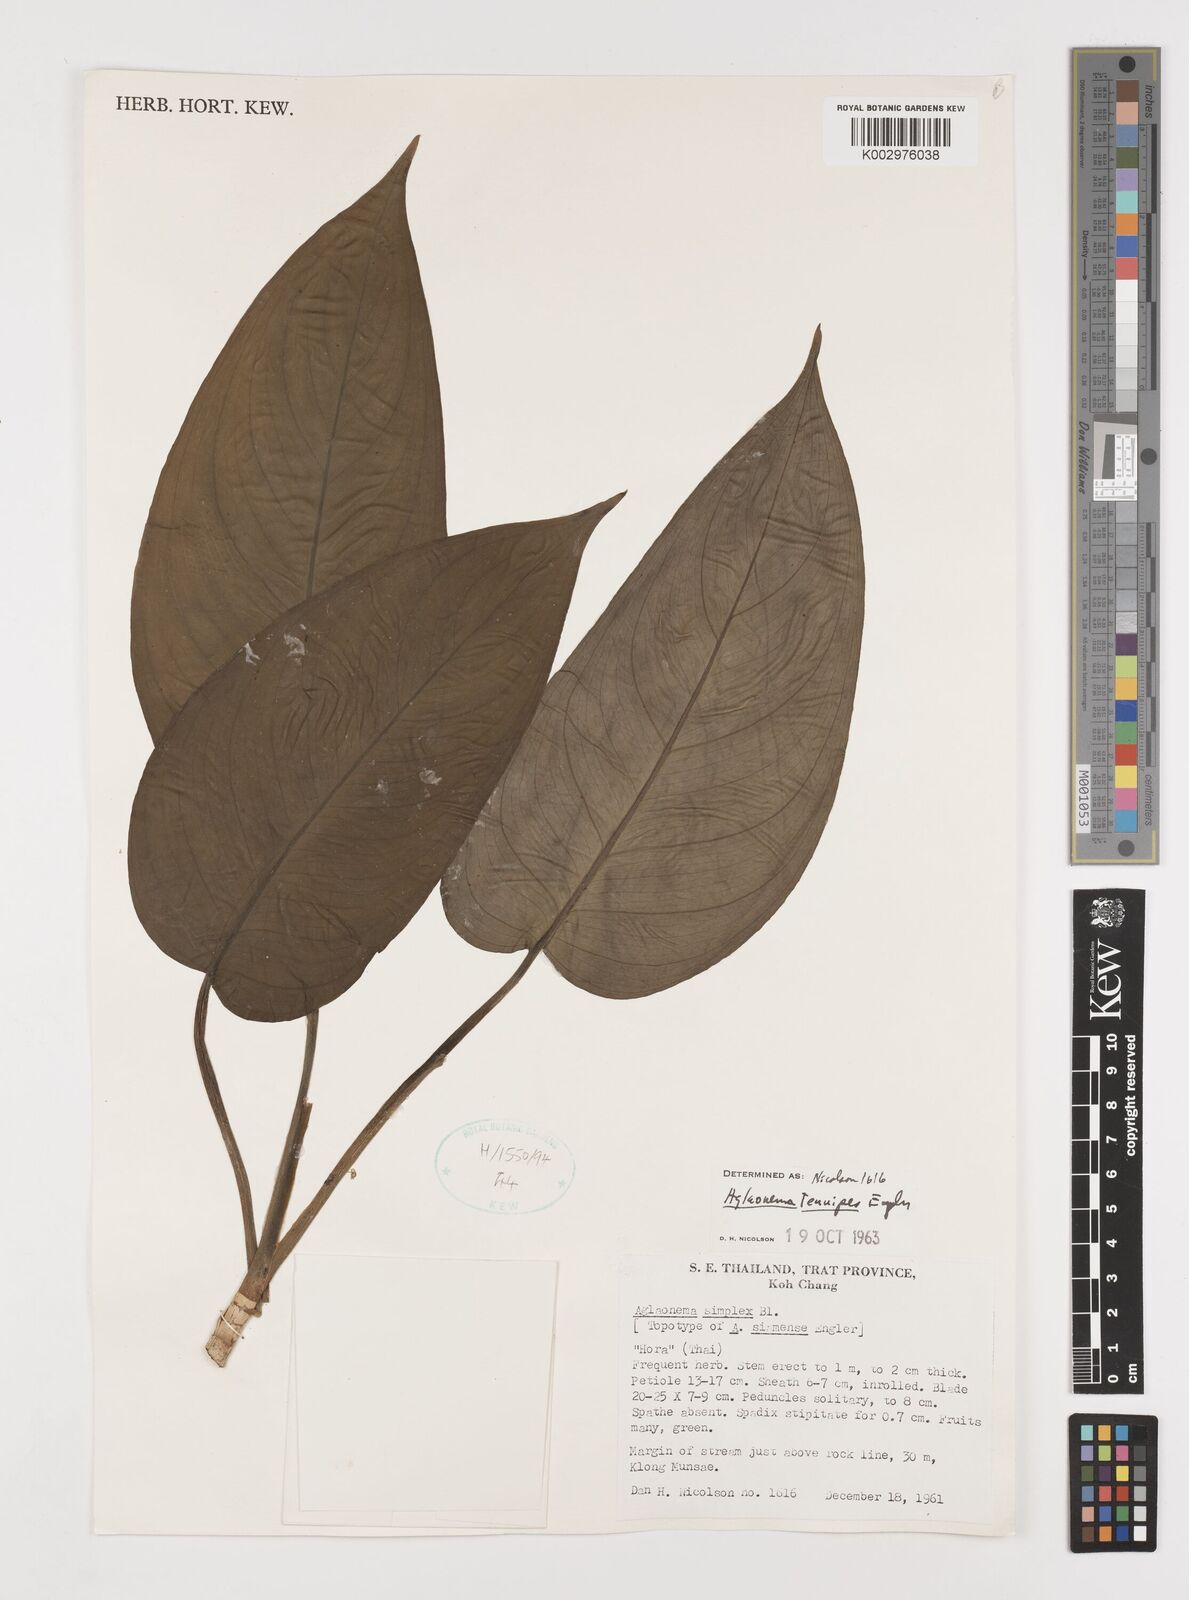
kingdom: Plantae
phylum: Tracheophyta
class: Liliopsida
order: Alismatales
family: Araceae
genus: Aglaonema
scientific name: Aglaonema simplex
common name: Malayan-sword
